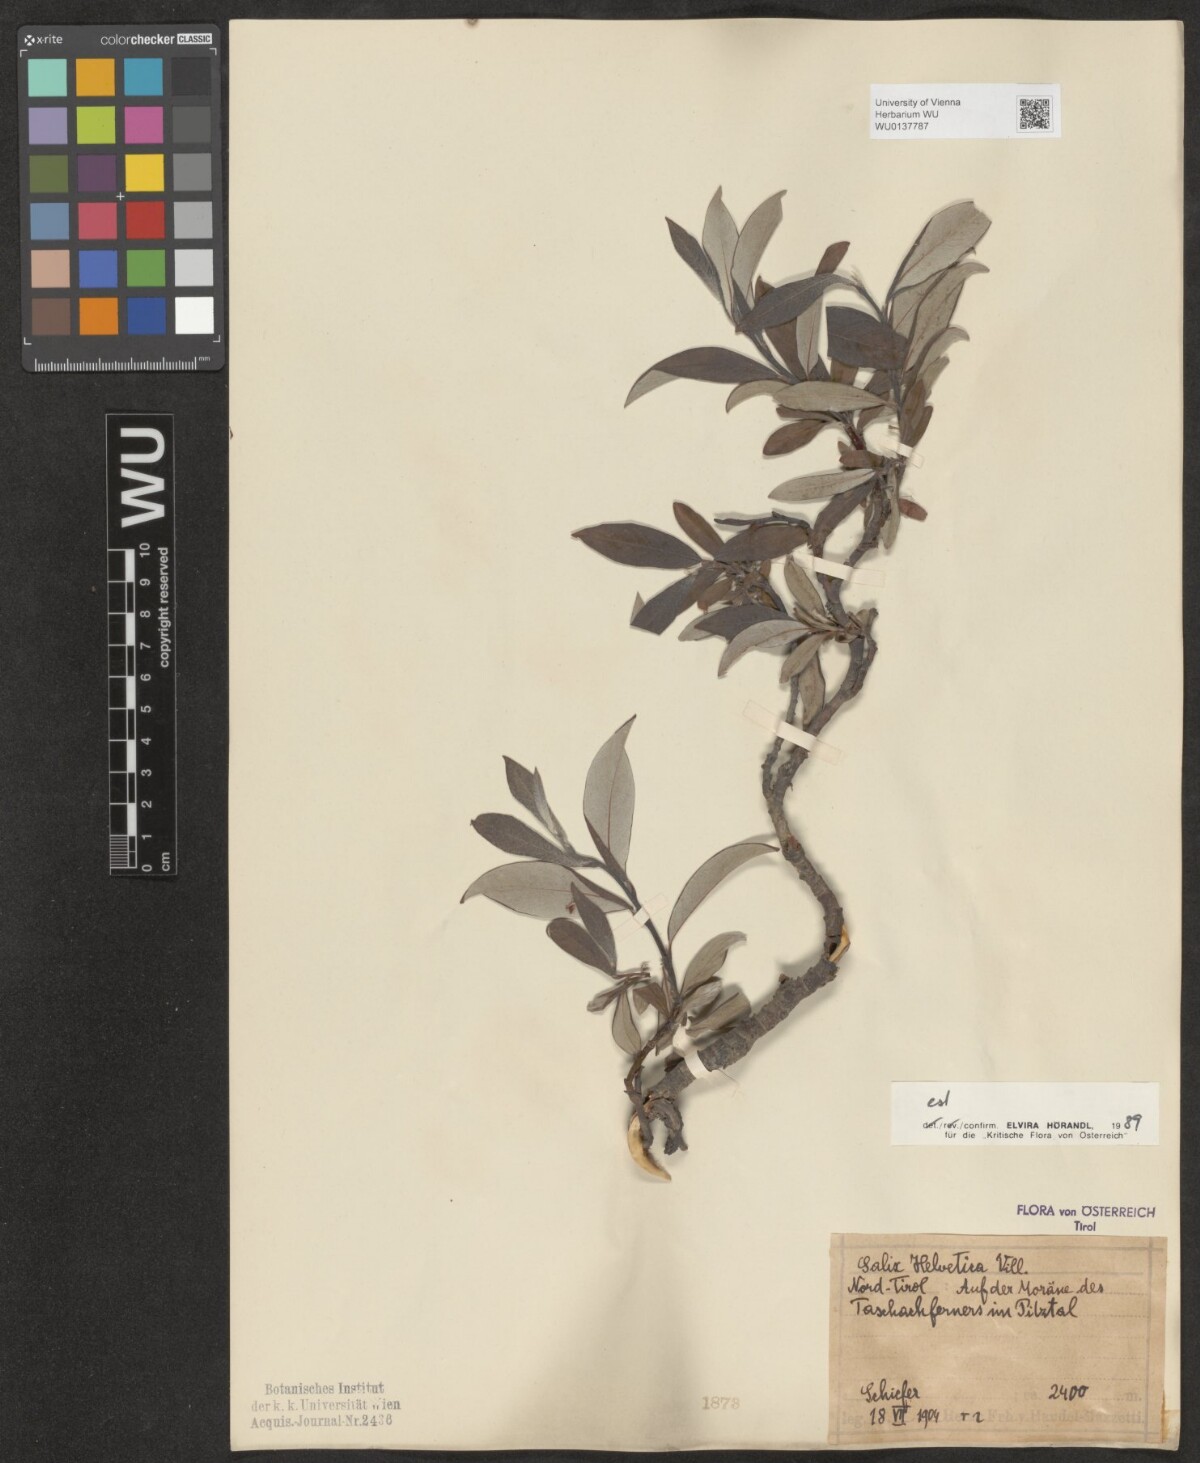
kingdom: Plantae
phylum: Tracheophyta
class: Magnoliopsida
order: Malpighiales
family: Salicaceae
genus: Salix
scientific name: Salix helvetica
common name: Swiss willow
